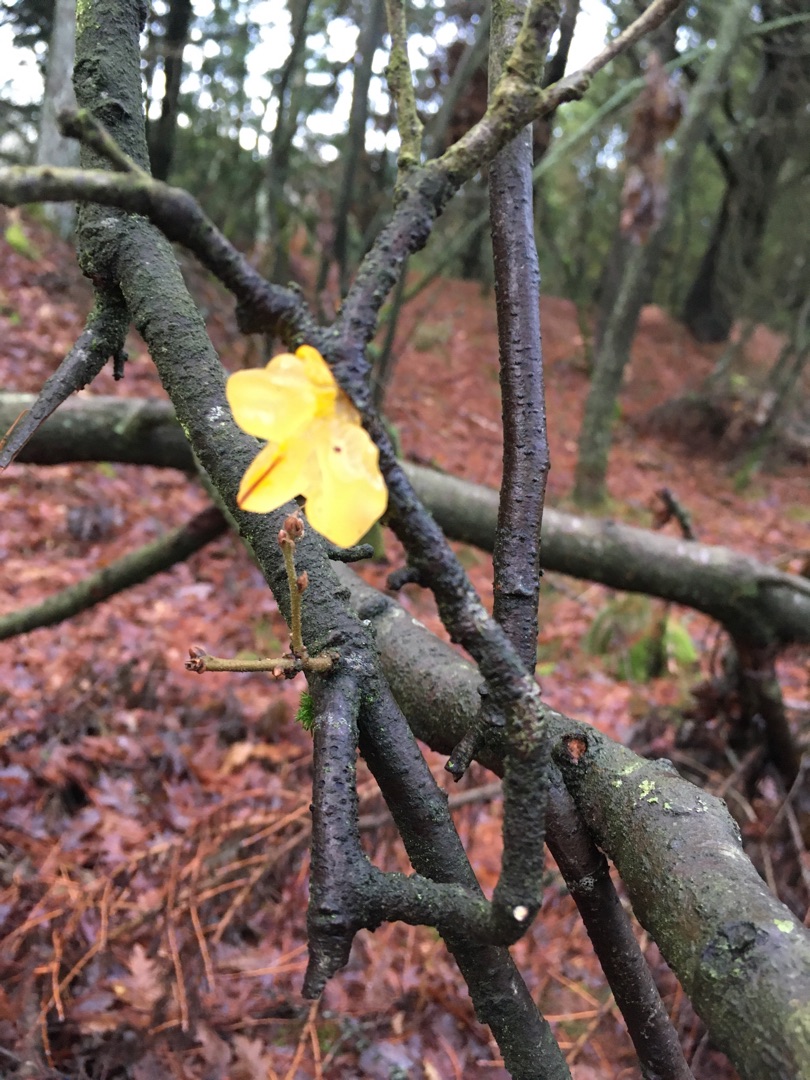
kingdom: Fungi
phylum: Basidiomycota
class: Tremellomycetes
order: Tremellales
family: Tremellaceae
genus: Tremella
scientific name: Tremella mesenterica
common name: Gul bævresvamp
